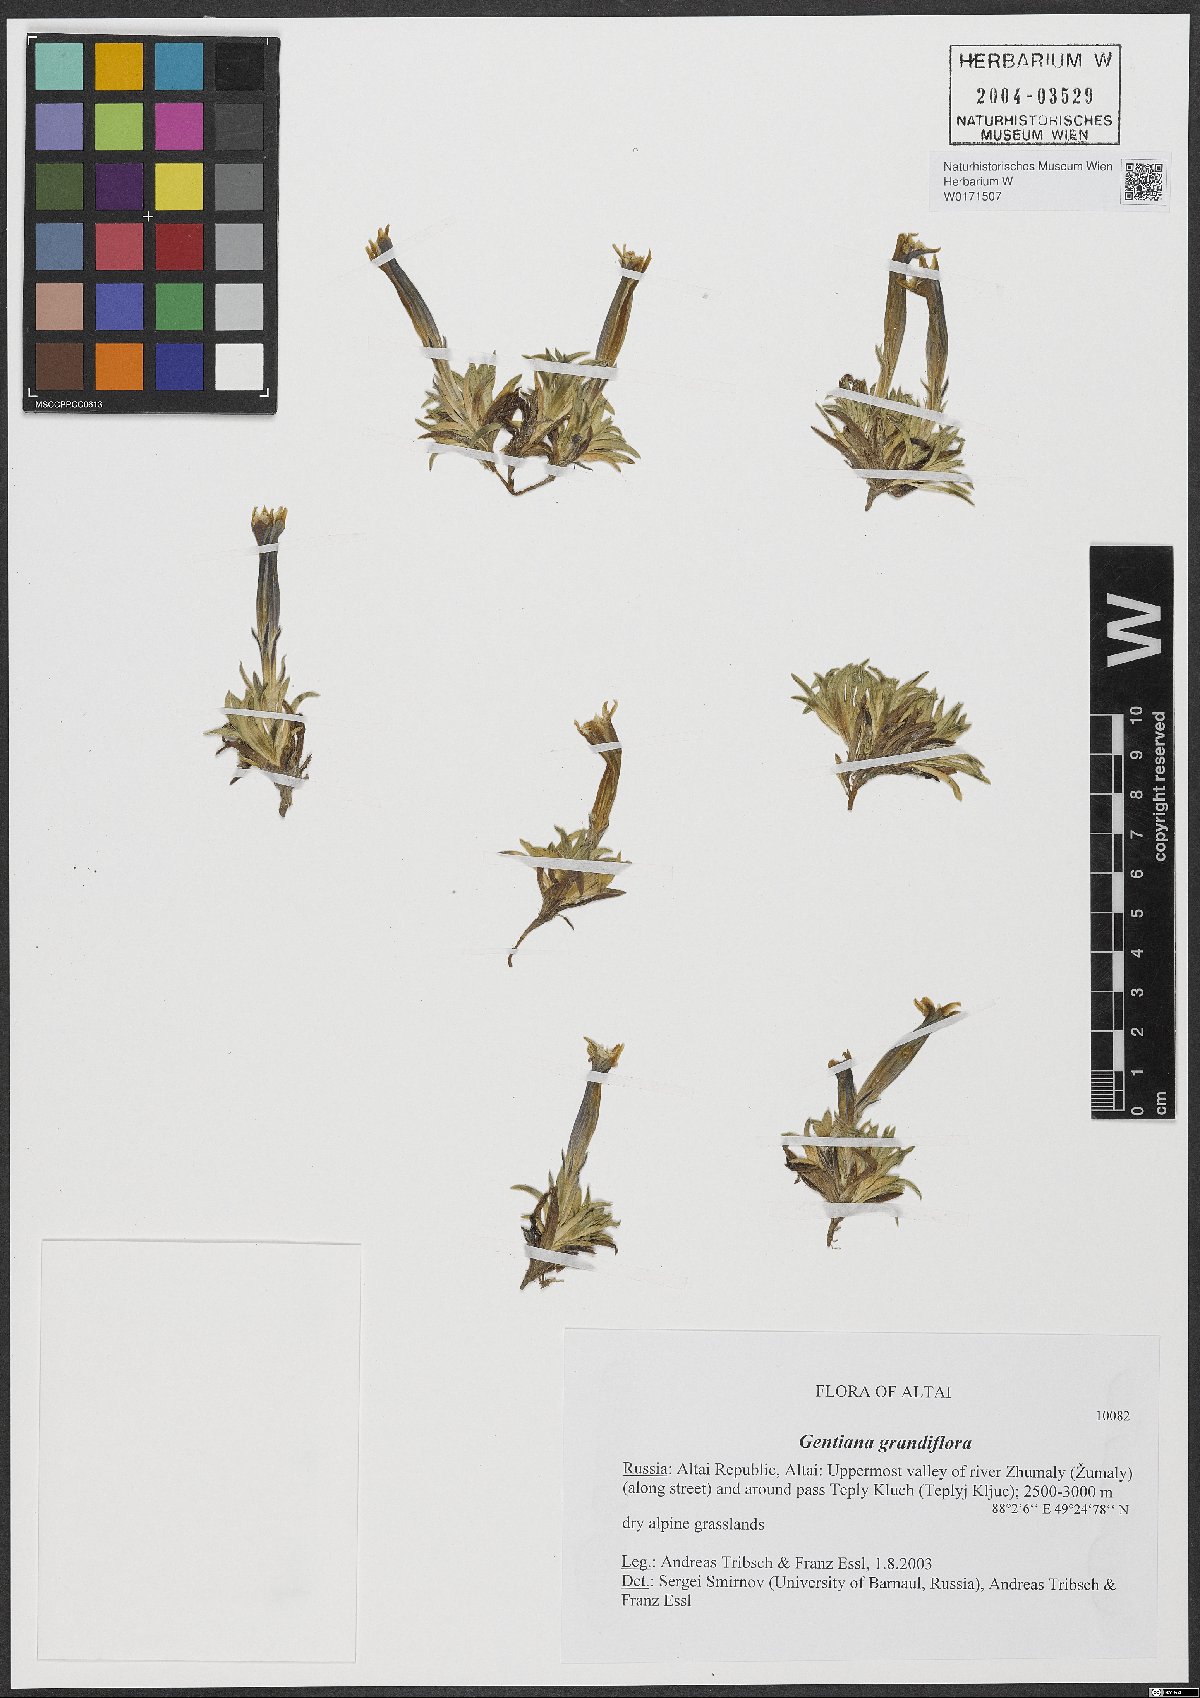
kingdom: Plantae
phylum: Tracheophyta
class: Magnoliopsida
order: Gentianales
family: Gentianaceae
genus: Gentiana
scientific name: Gentiana grandiflora
